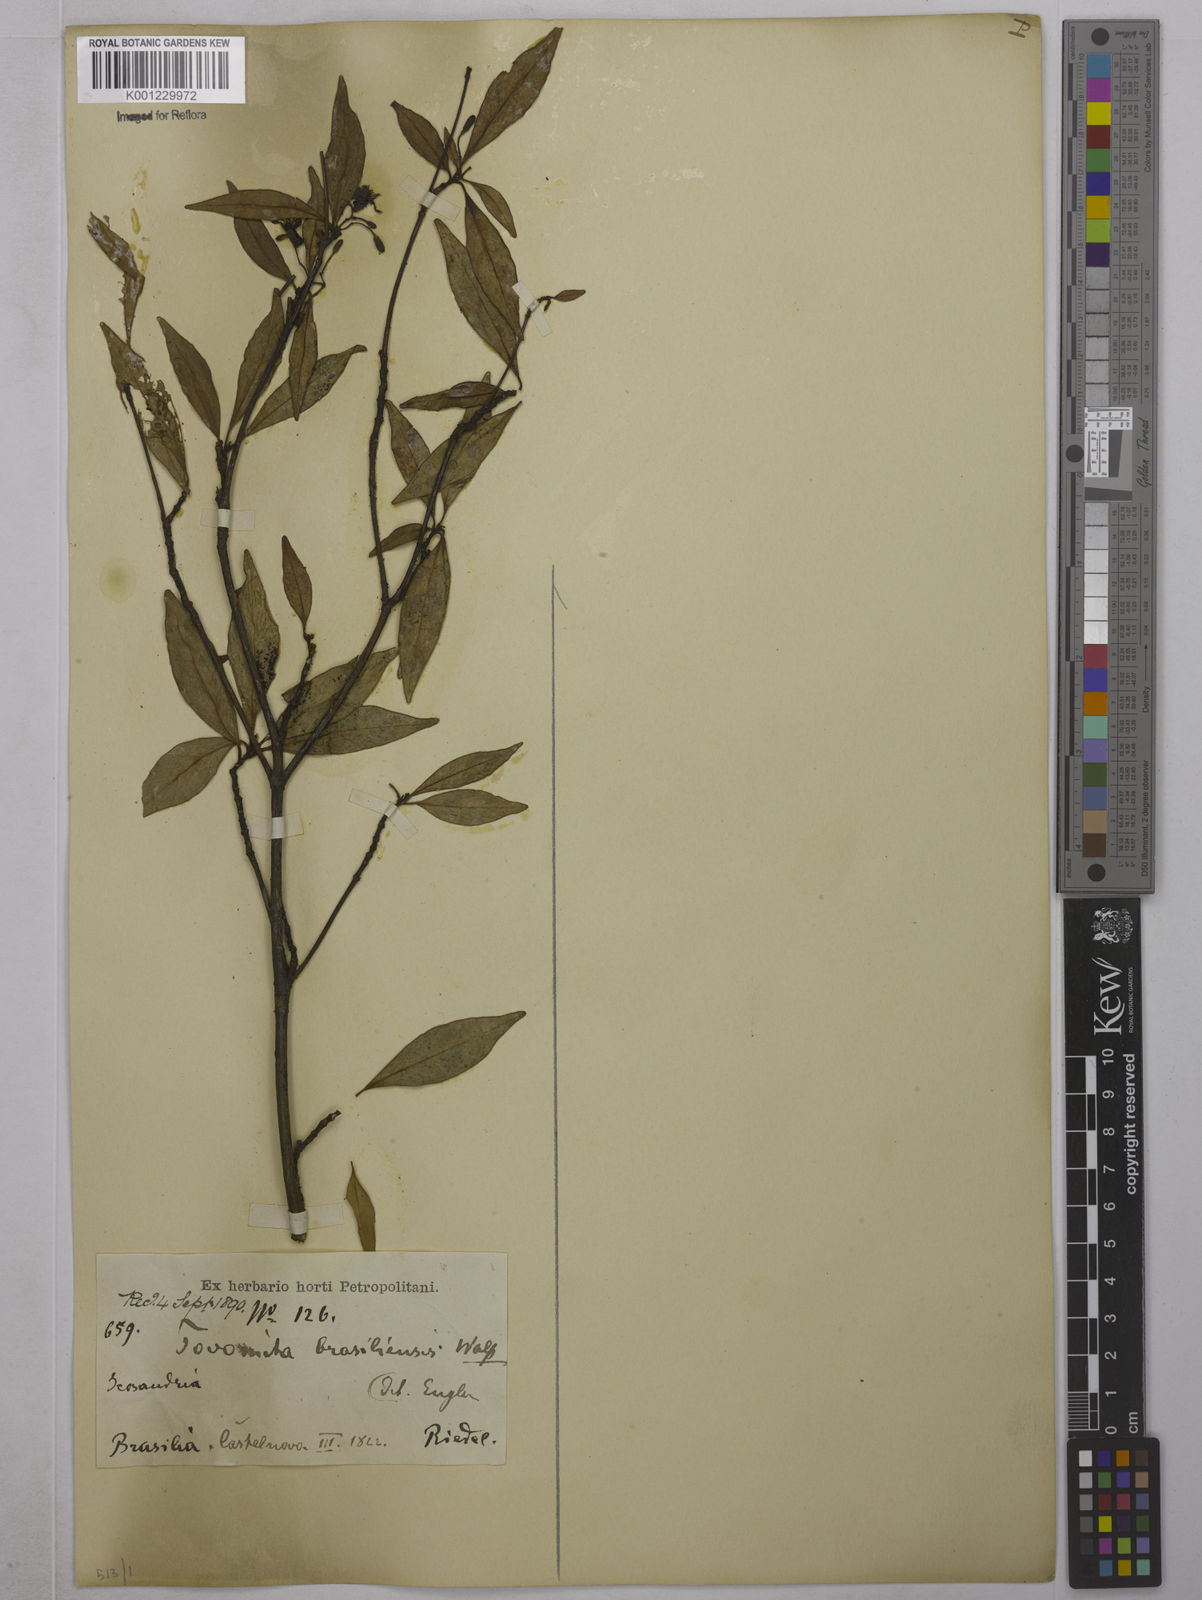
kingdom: Plantae
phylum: Tracheophyta
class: Magnoliopsida
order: Malpighiales
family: Clusiaceae
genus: Tovomita
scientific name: Tovomita
